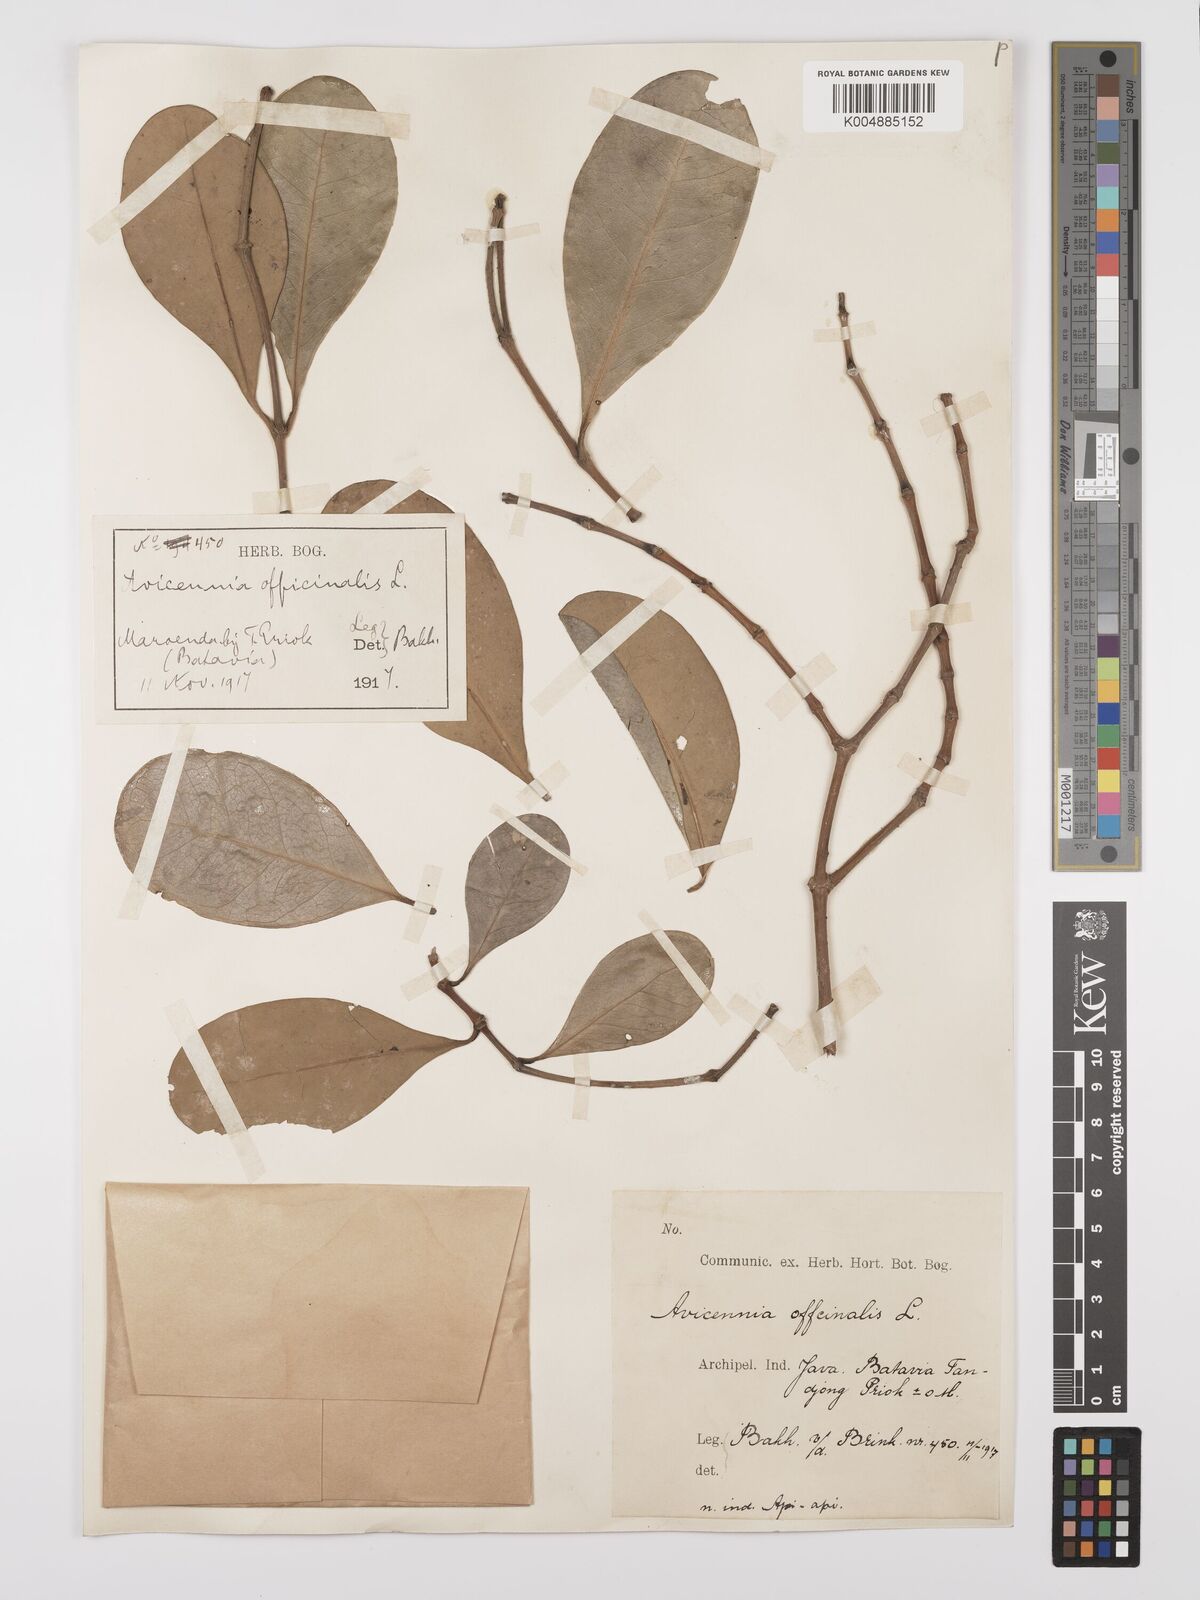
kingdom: Plantae
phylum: Tracheophyta
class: Magnoliopsida
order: Lamiales
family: Acanthaceae
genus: Avicennia
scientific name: Avicennia officinalis
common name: Baen
